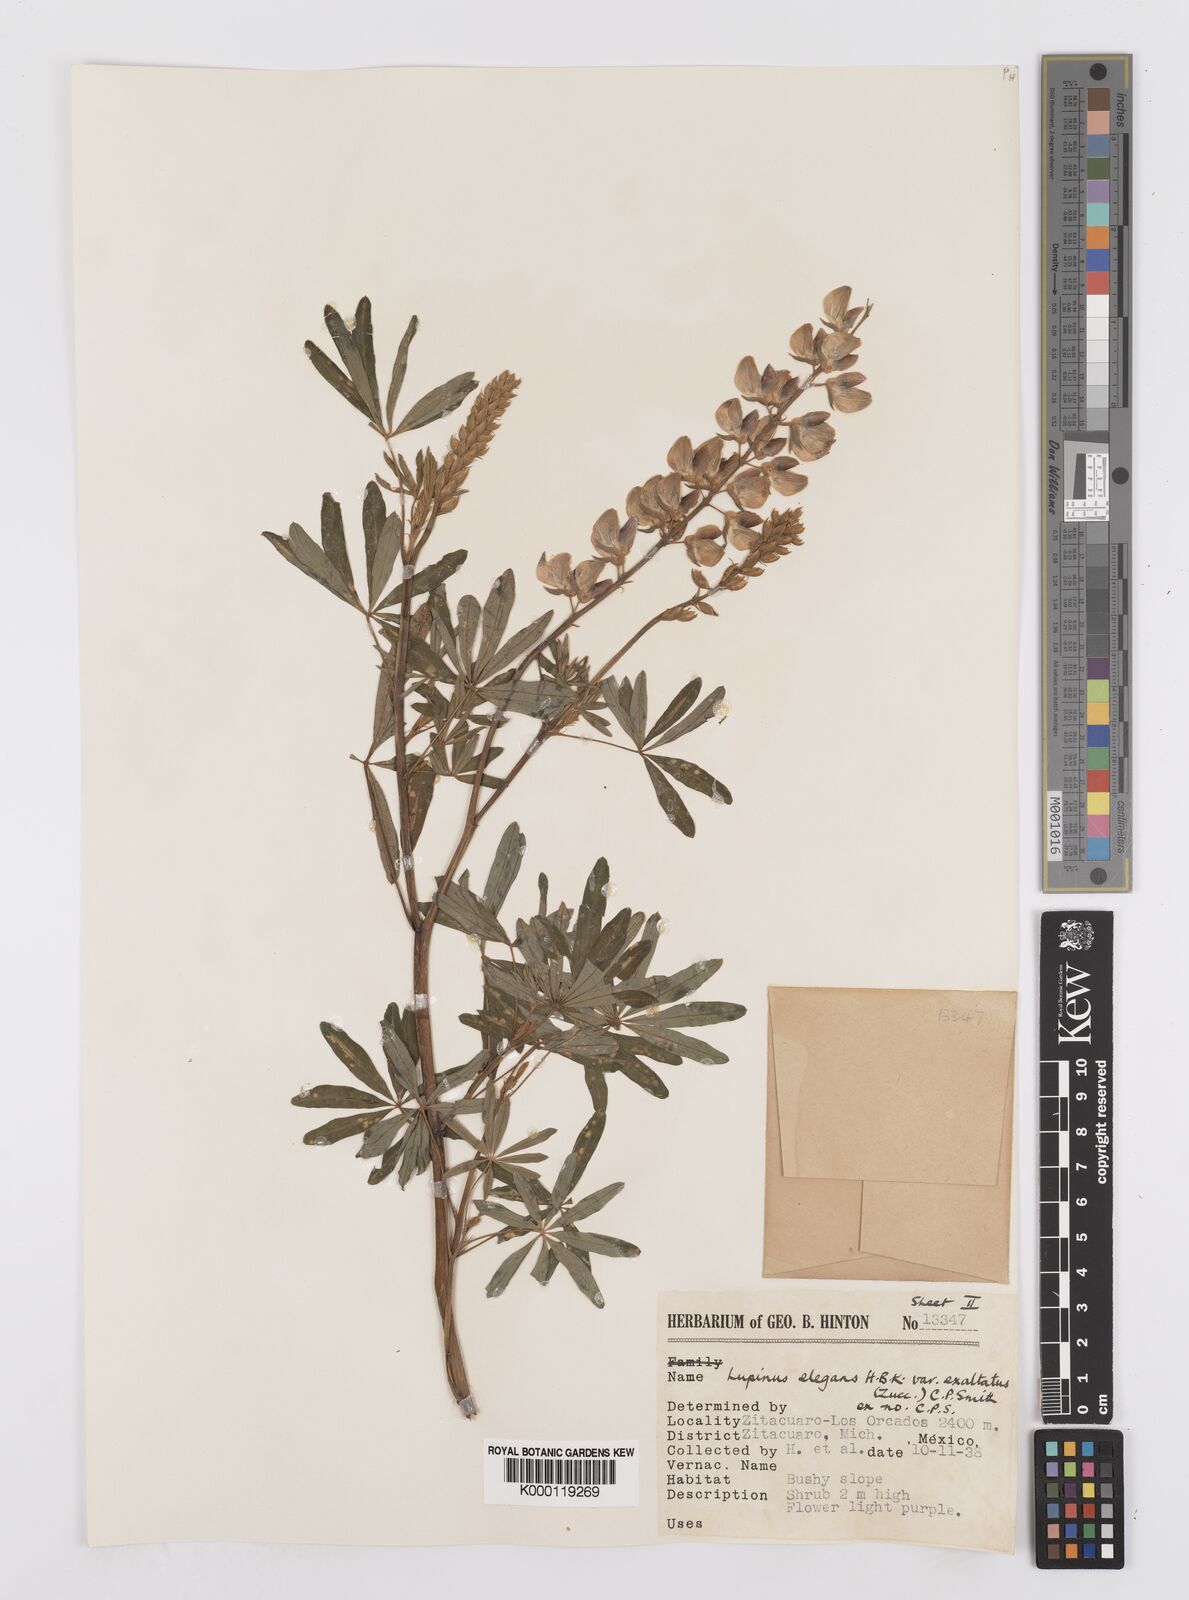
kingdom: Plantae
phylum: Tracheophyta
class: Magnoliopsida
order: Fabales
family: Fabaceae
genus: Lupinus
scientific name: Lupinus elegans
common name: Mexican lupine
